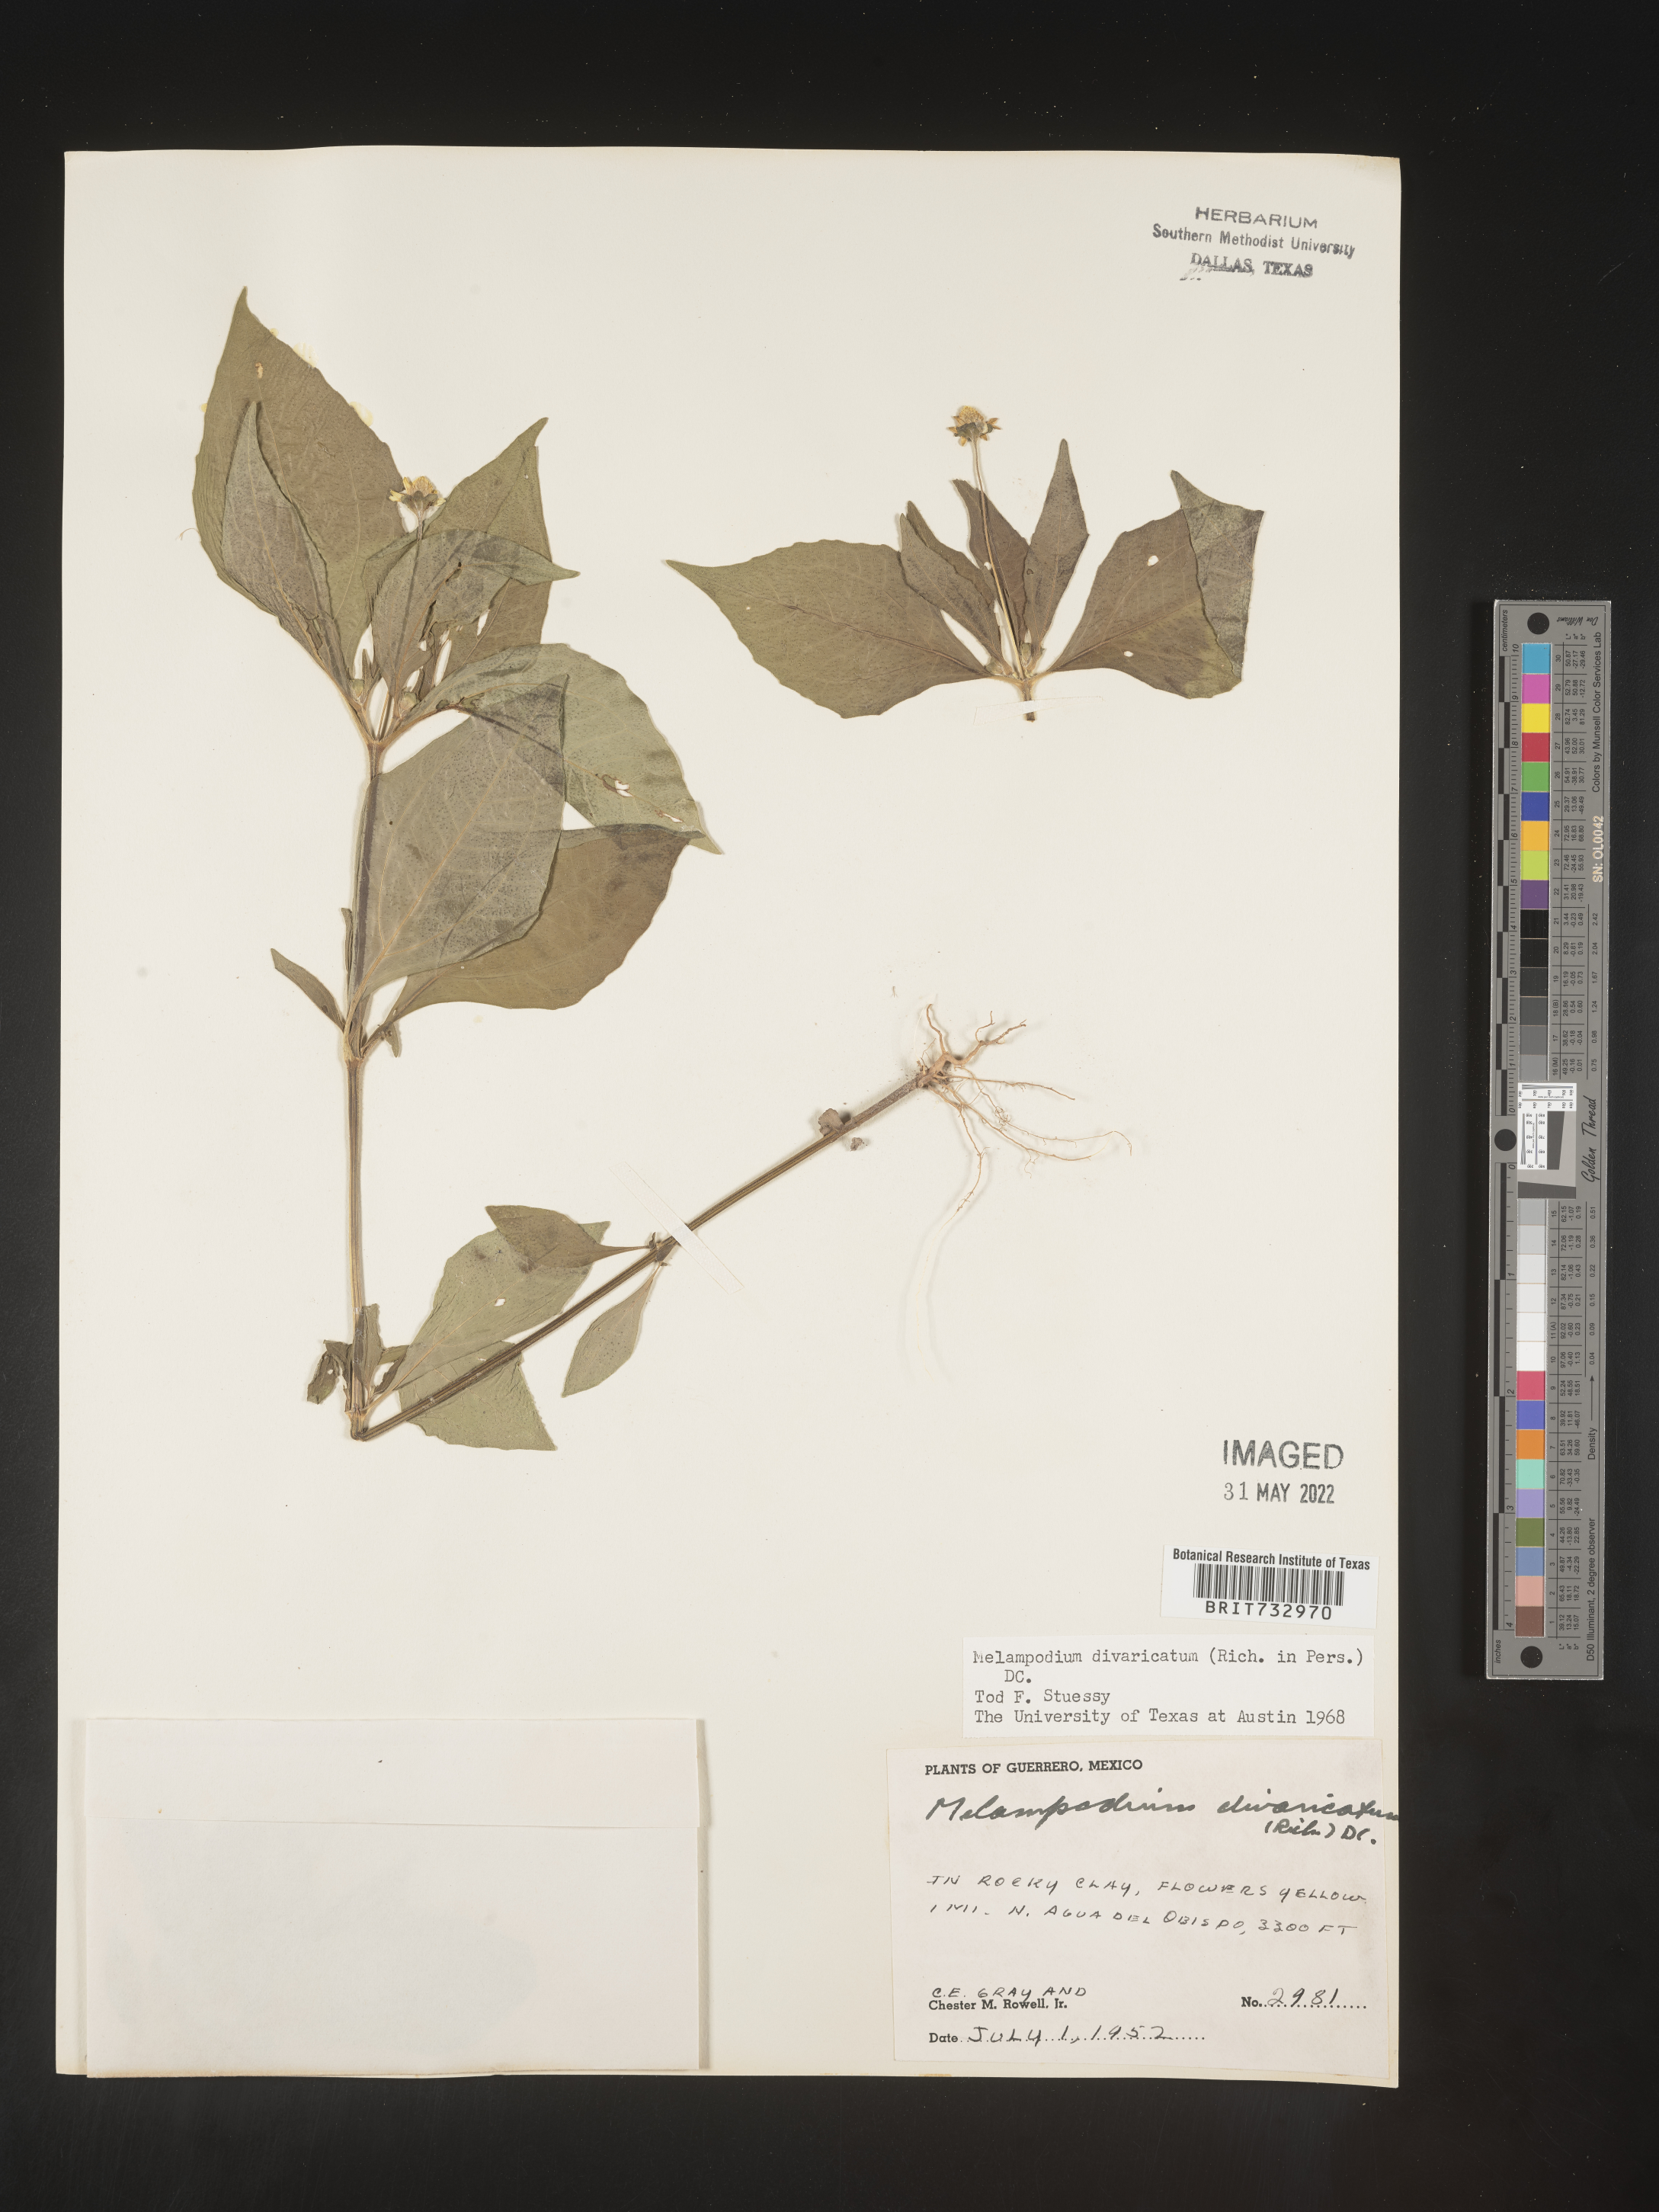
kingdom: Plantae
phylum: Tracheophyta
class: Magnoliopsida
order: Asterales
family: Asteraceae
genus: Melampodium
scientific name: Melampodium
